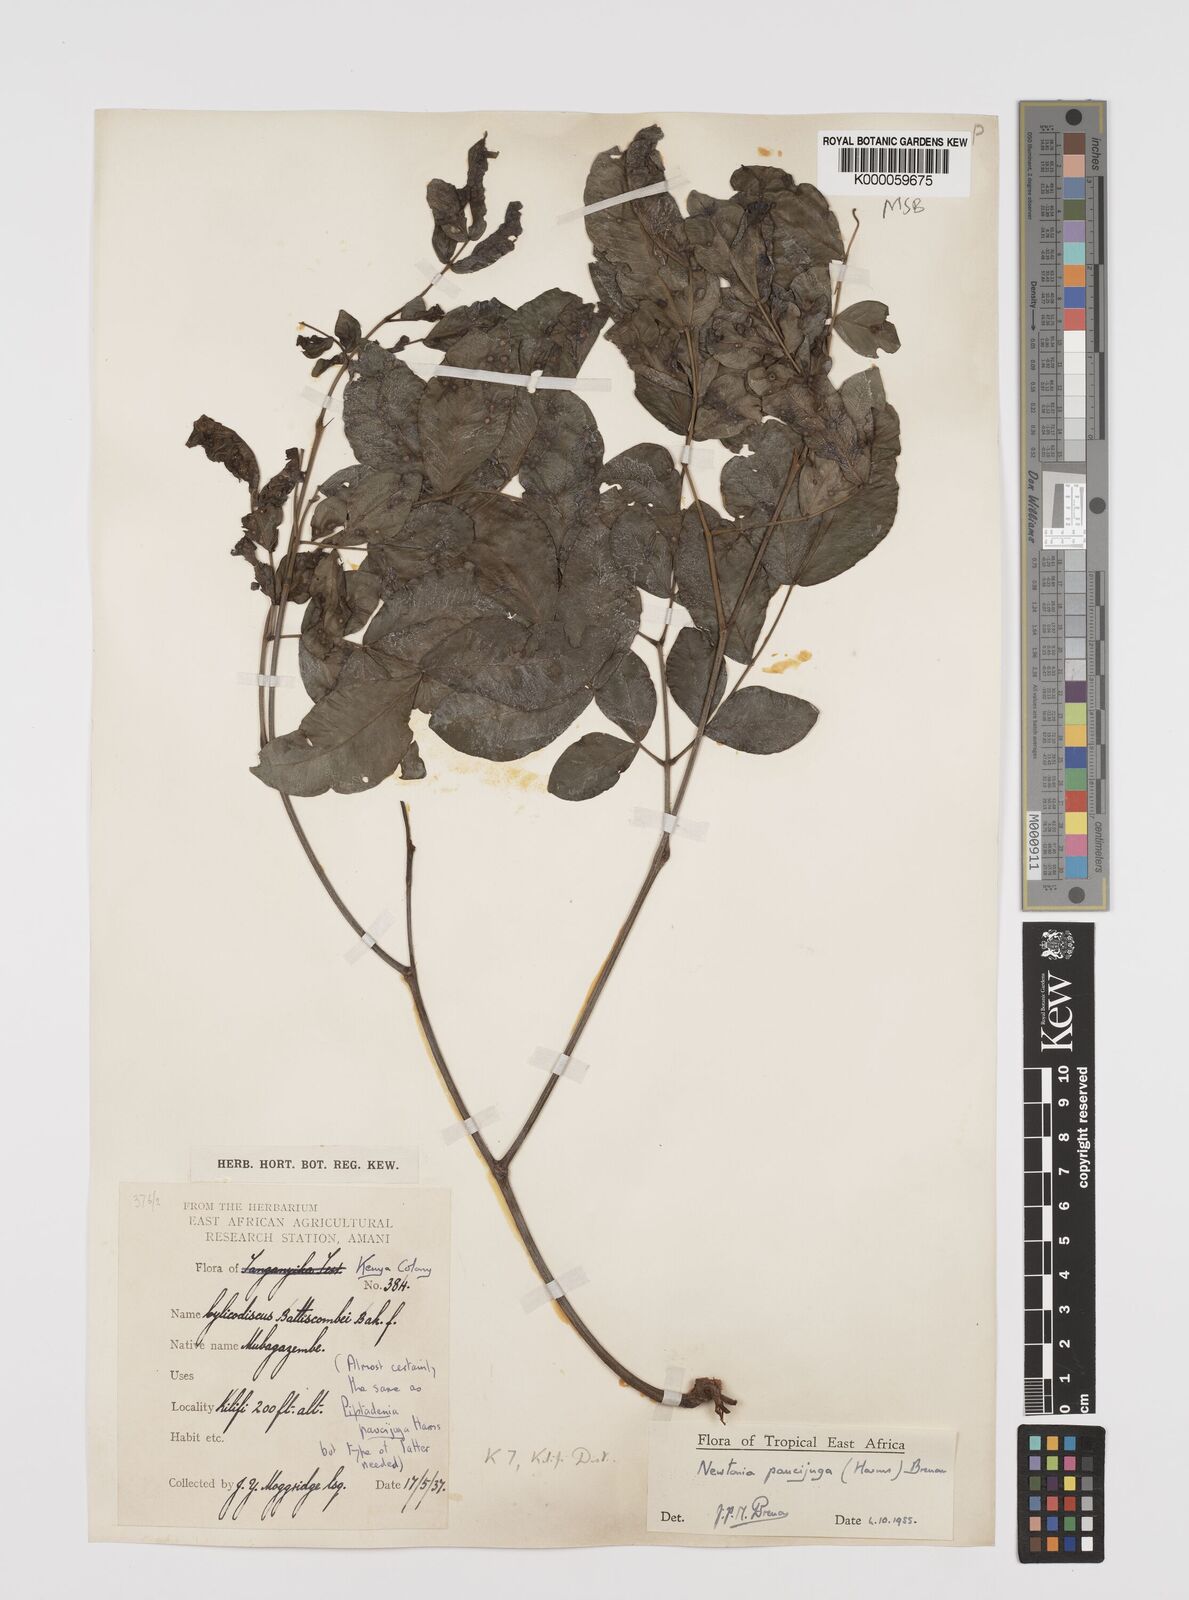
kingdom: Plantae
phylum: Tracheophyta
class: Magnoliopsida
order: Fabales
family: Fabaceae
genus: Newtonia
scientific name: Newtonia paucijuga
